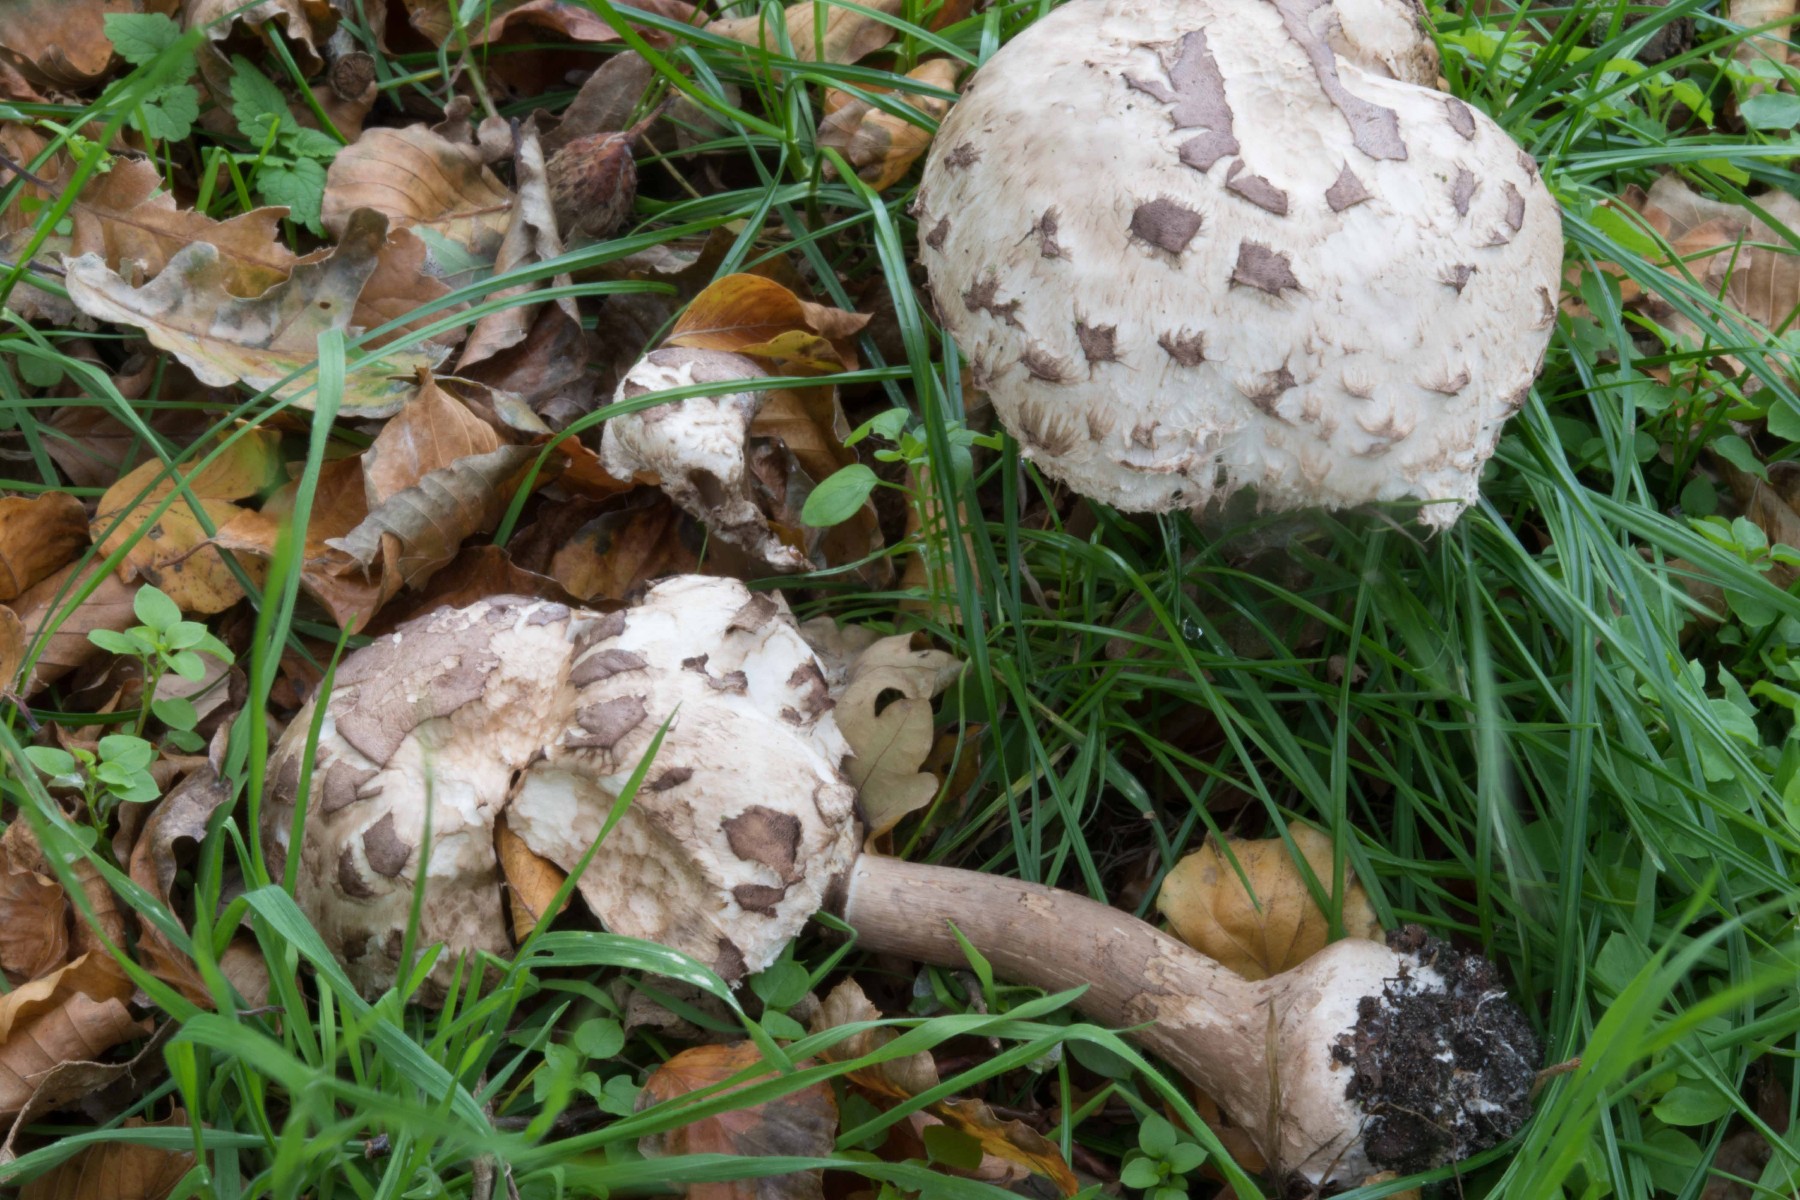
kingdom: Fungi
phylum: Basidiomycota
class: Agaricomycetes
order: Agaricales
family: Agaricaceae
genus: Chlorophyllum
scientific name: Chlorophyllum rhacodes
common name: ægte rabarberhat
